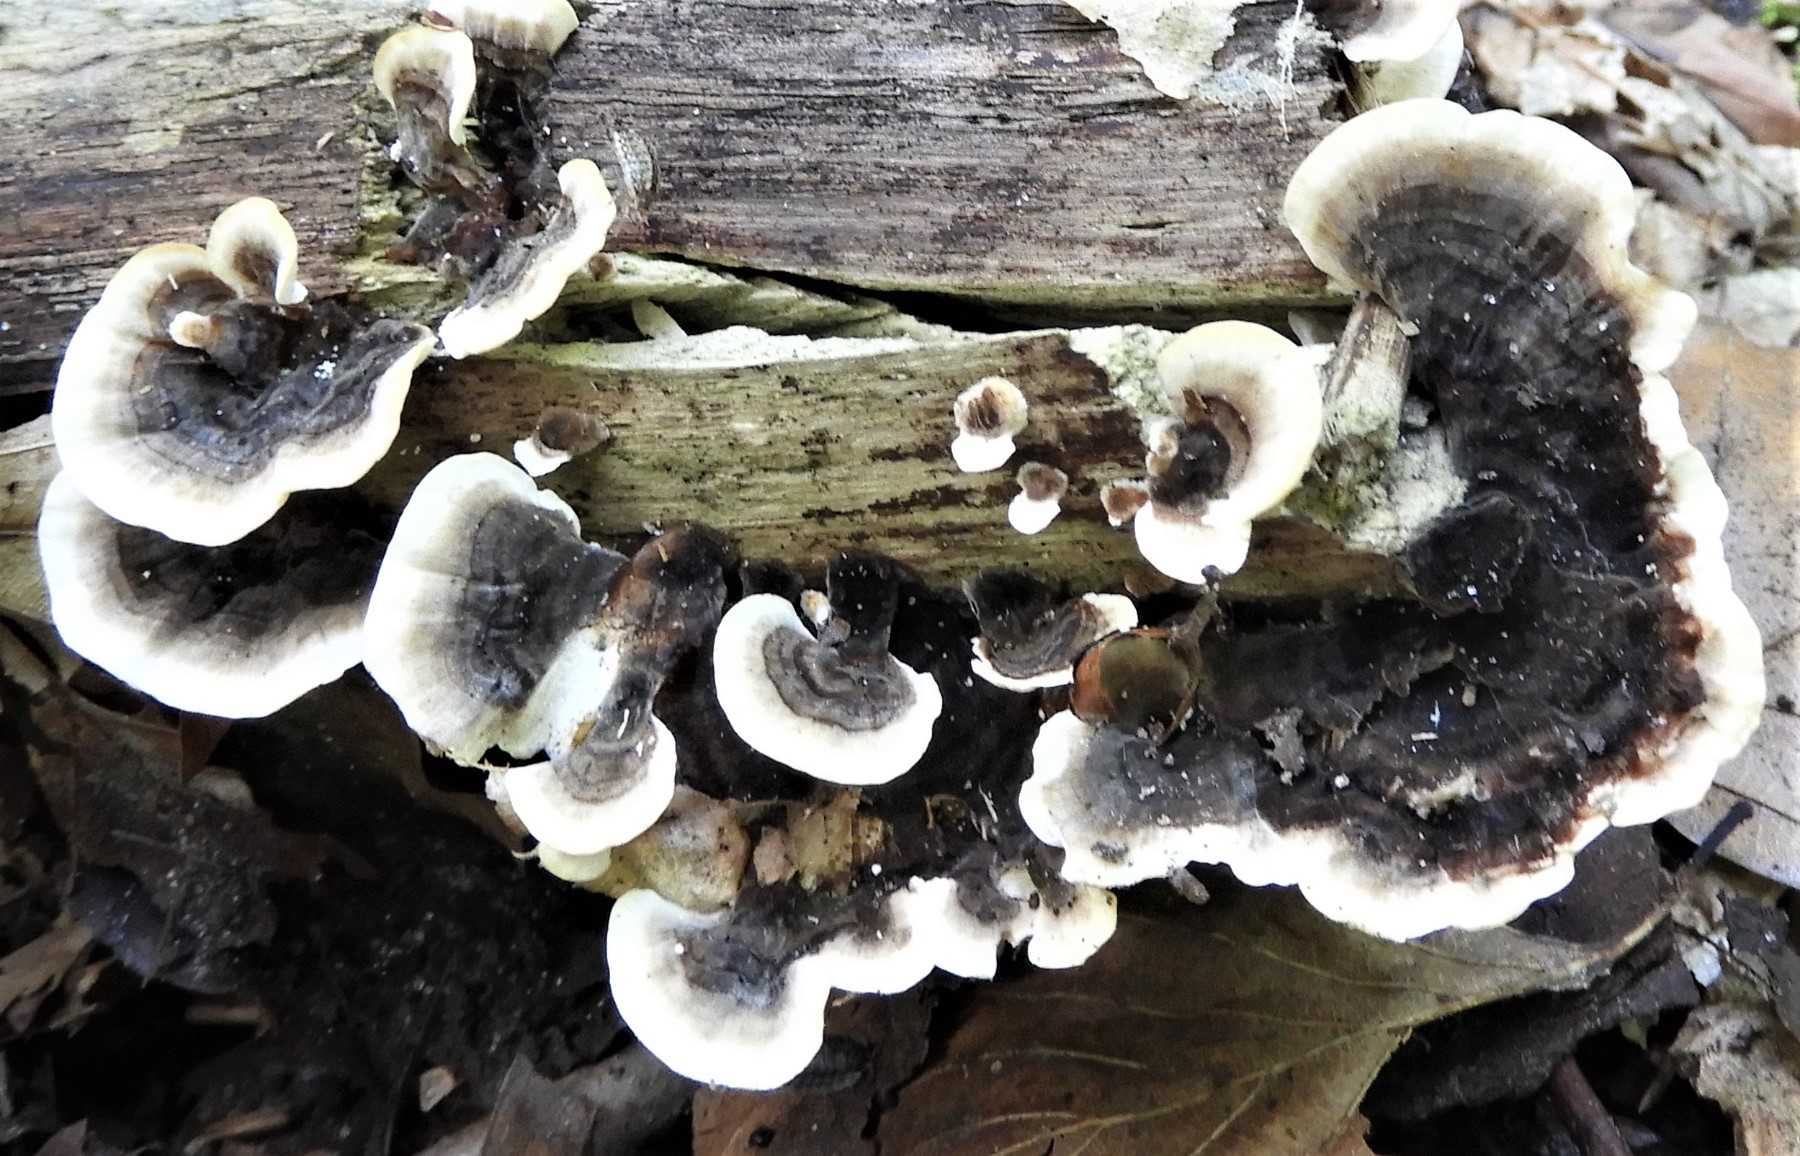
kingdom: Fungi
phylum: Basidiomycota
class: Agaricomycetes
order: Polyporales
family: Phanerochaetaceae
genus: Bjerkandera
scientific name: Bjerkandera adusta
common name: sveden sodporesvamp
